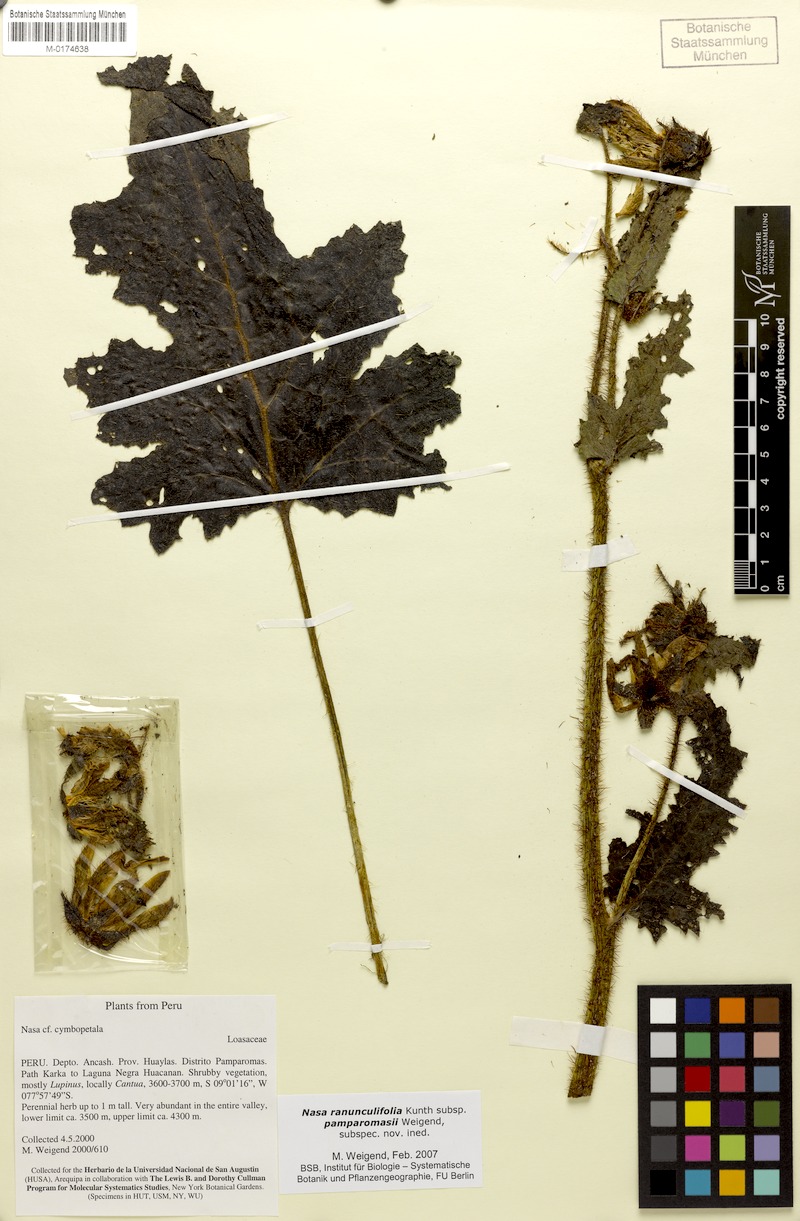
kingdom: Plantae
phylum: Tracheophyta
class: Magnoliopsida
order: Cornales
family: Loasaceae
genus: Nasa
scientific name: Nasa ranunculifolia
